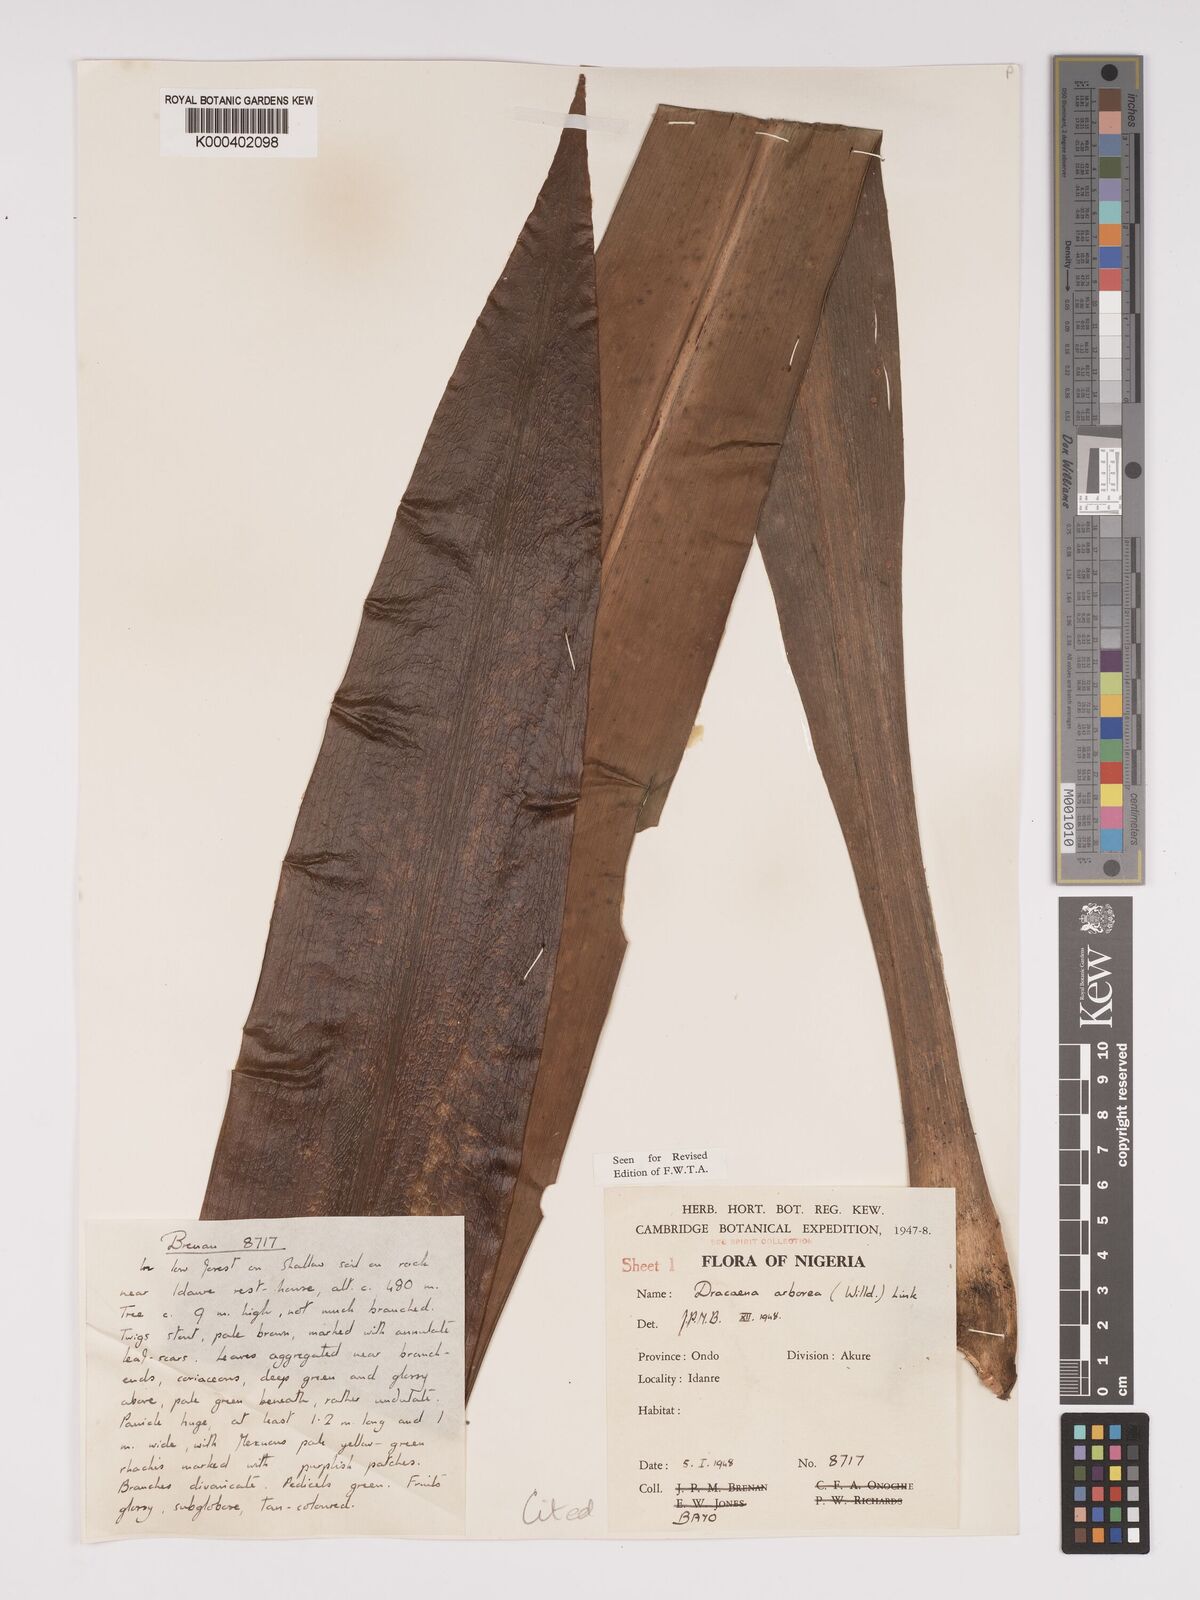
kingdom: Plantae
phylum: Tracheophyta
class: Liliopsida
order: Asparagales
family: Asparagaceae
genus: Dracaena
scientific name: Dracaena arborea
